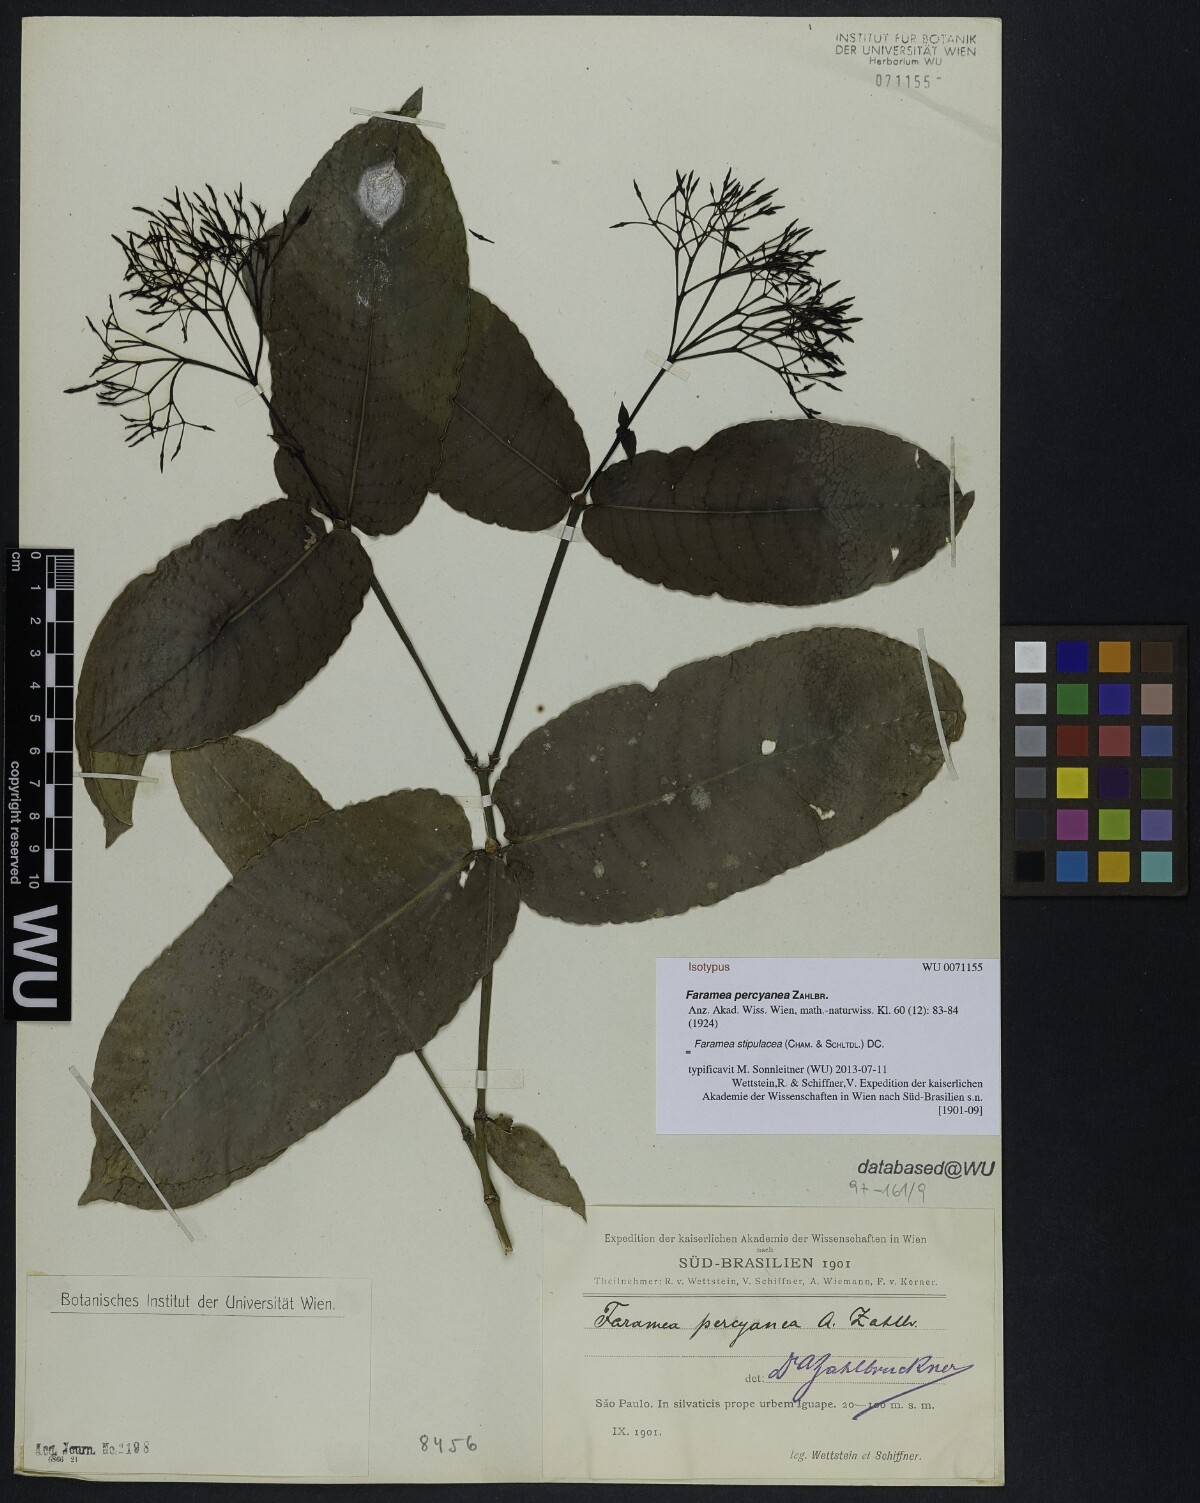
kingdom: Plantae
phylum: Tracheophyta
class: Magnoliopsida
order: Gentianales
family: Rubiaceae
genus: Faramea
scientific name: Faramea stipulacea
